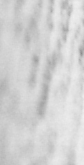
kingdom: Animalia
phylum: Chordata
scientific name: Chordata
